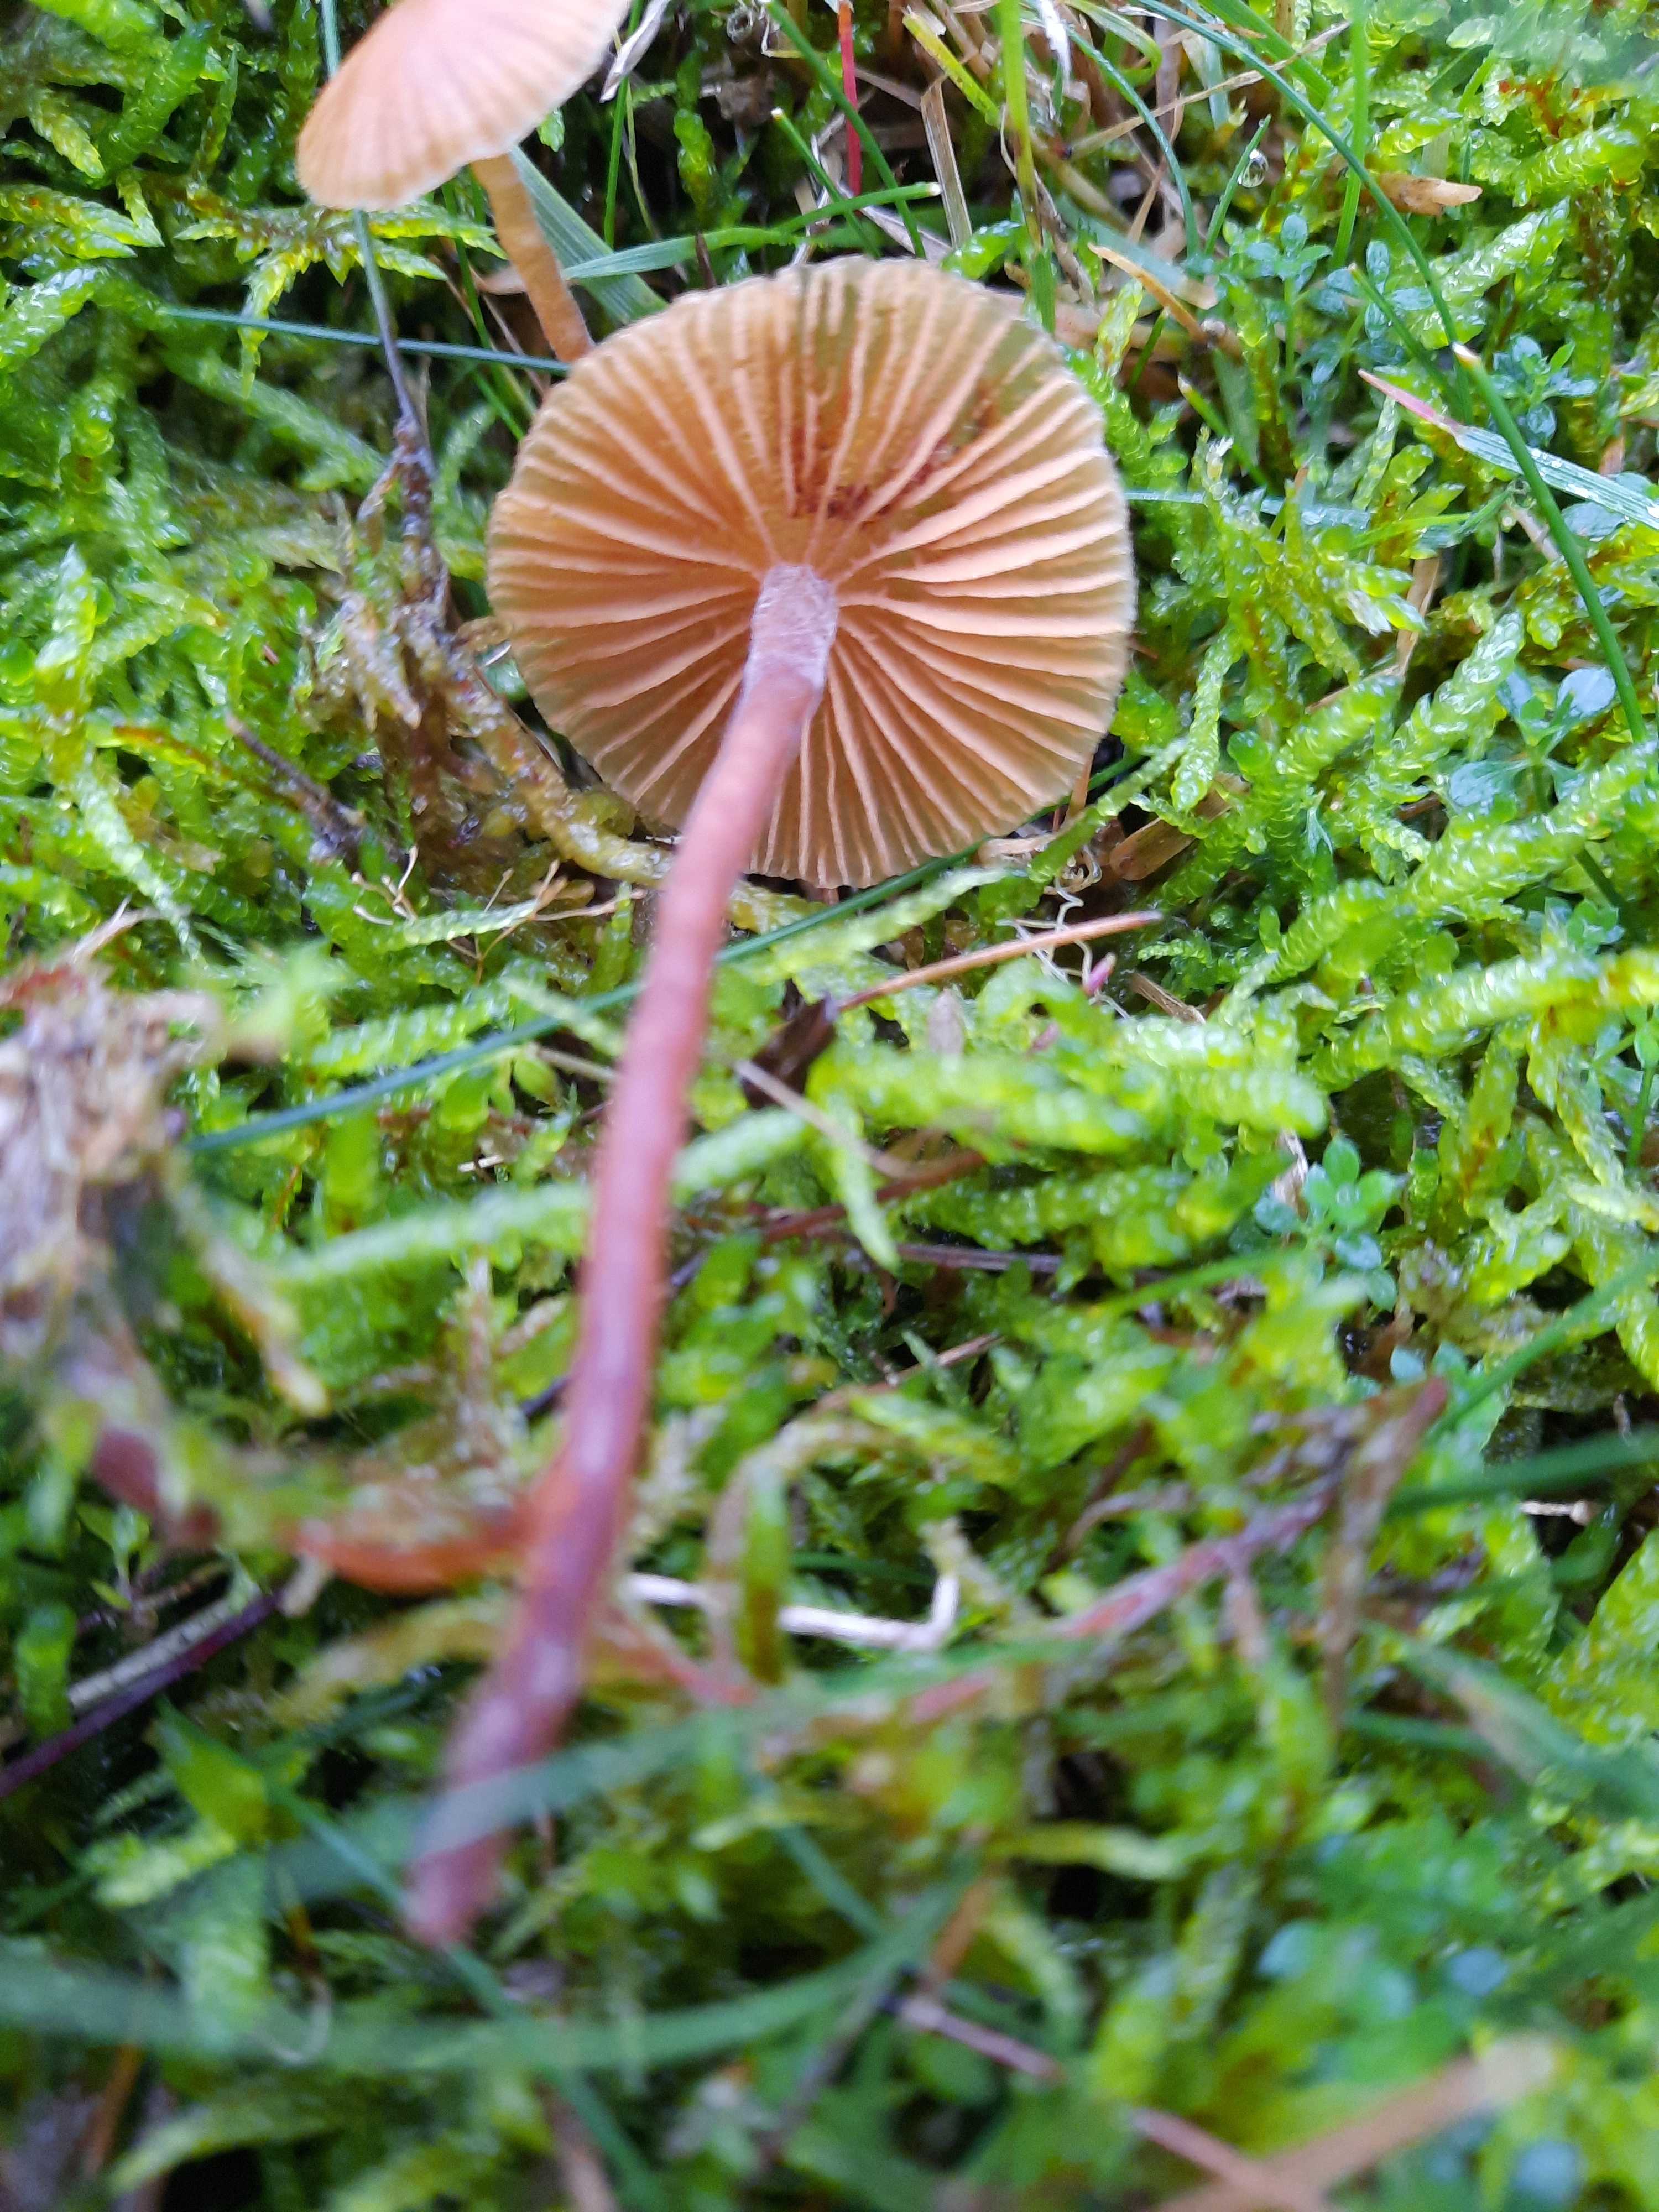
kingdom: Fungi
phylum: Basidiomycota
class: Agaricomycetes
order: Agaricales
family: Hymenogastraceae
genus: Galerina
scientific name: Galerina
